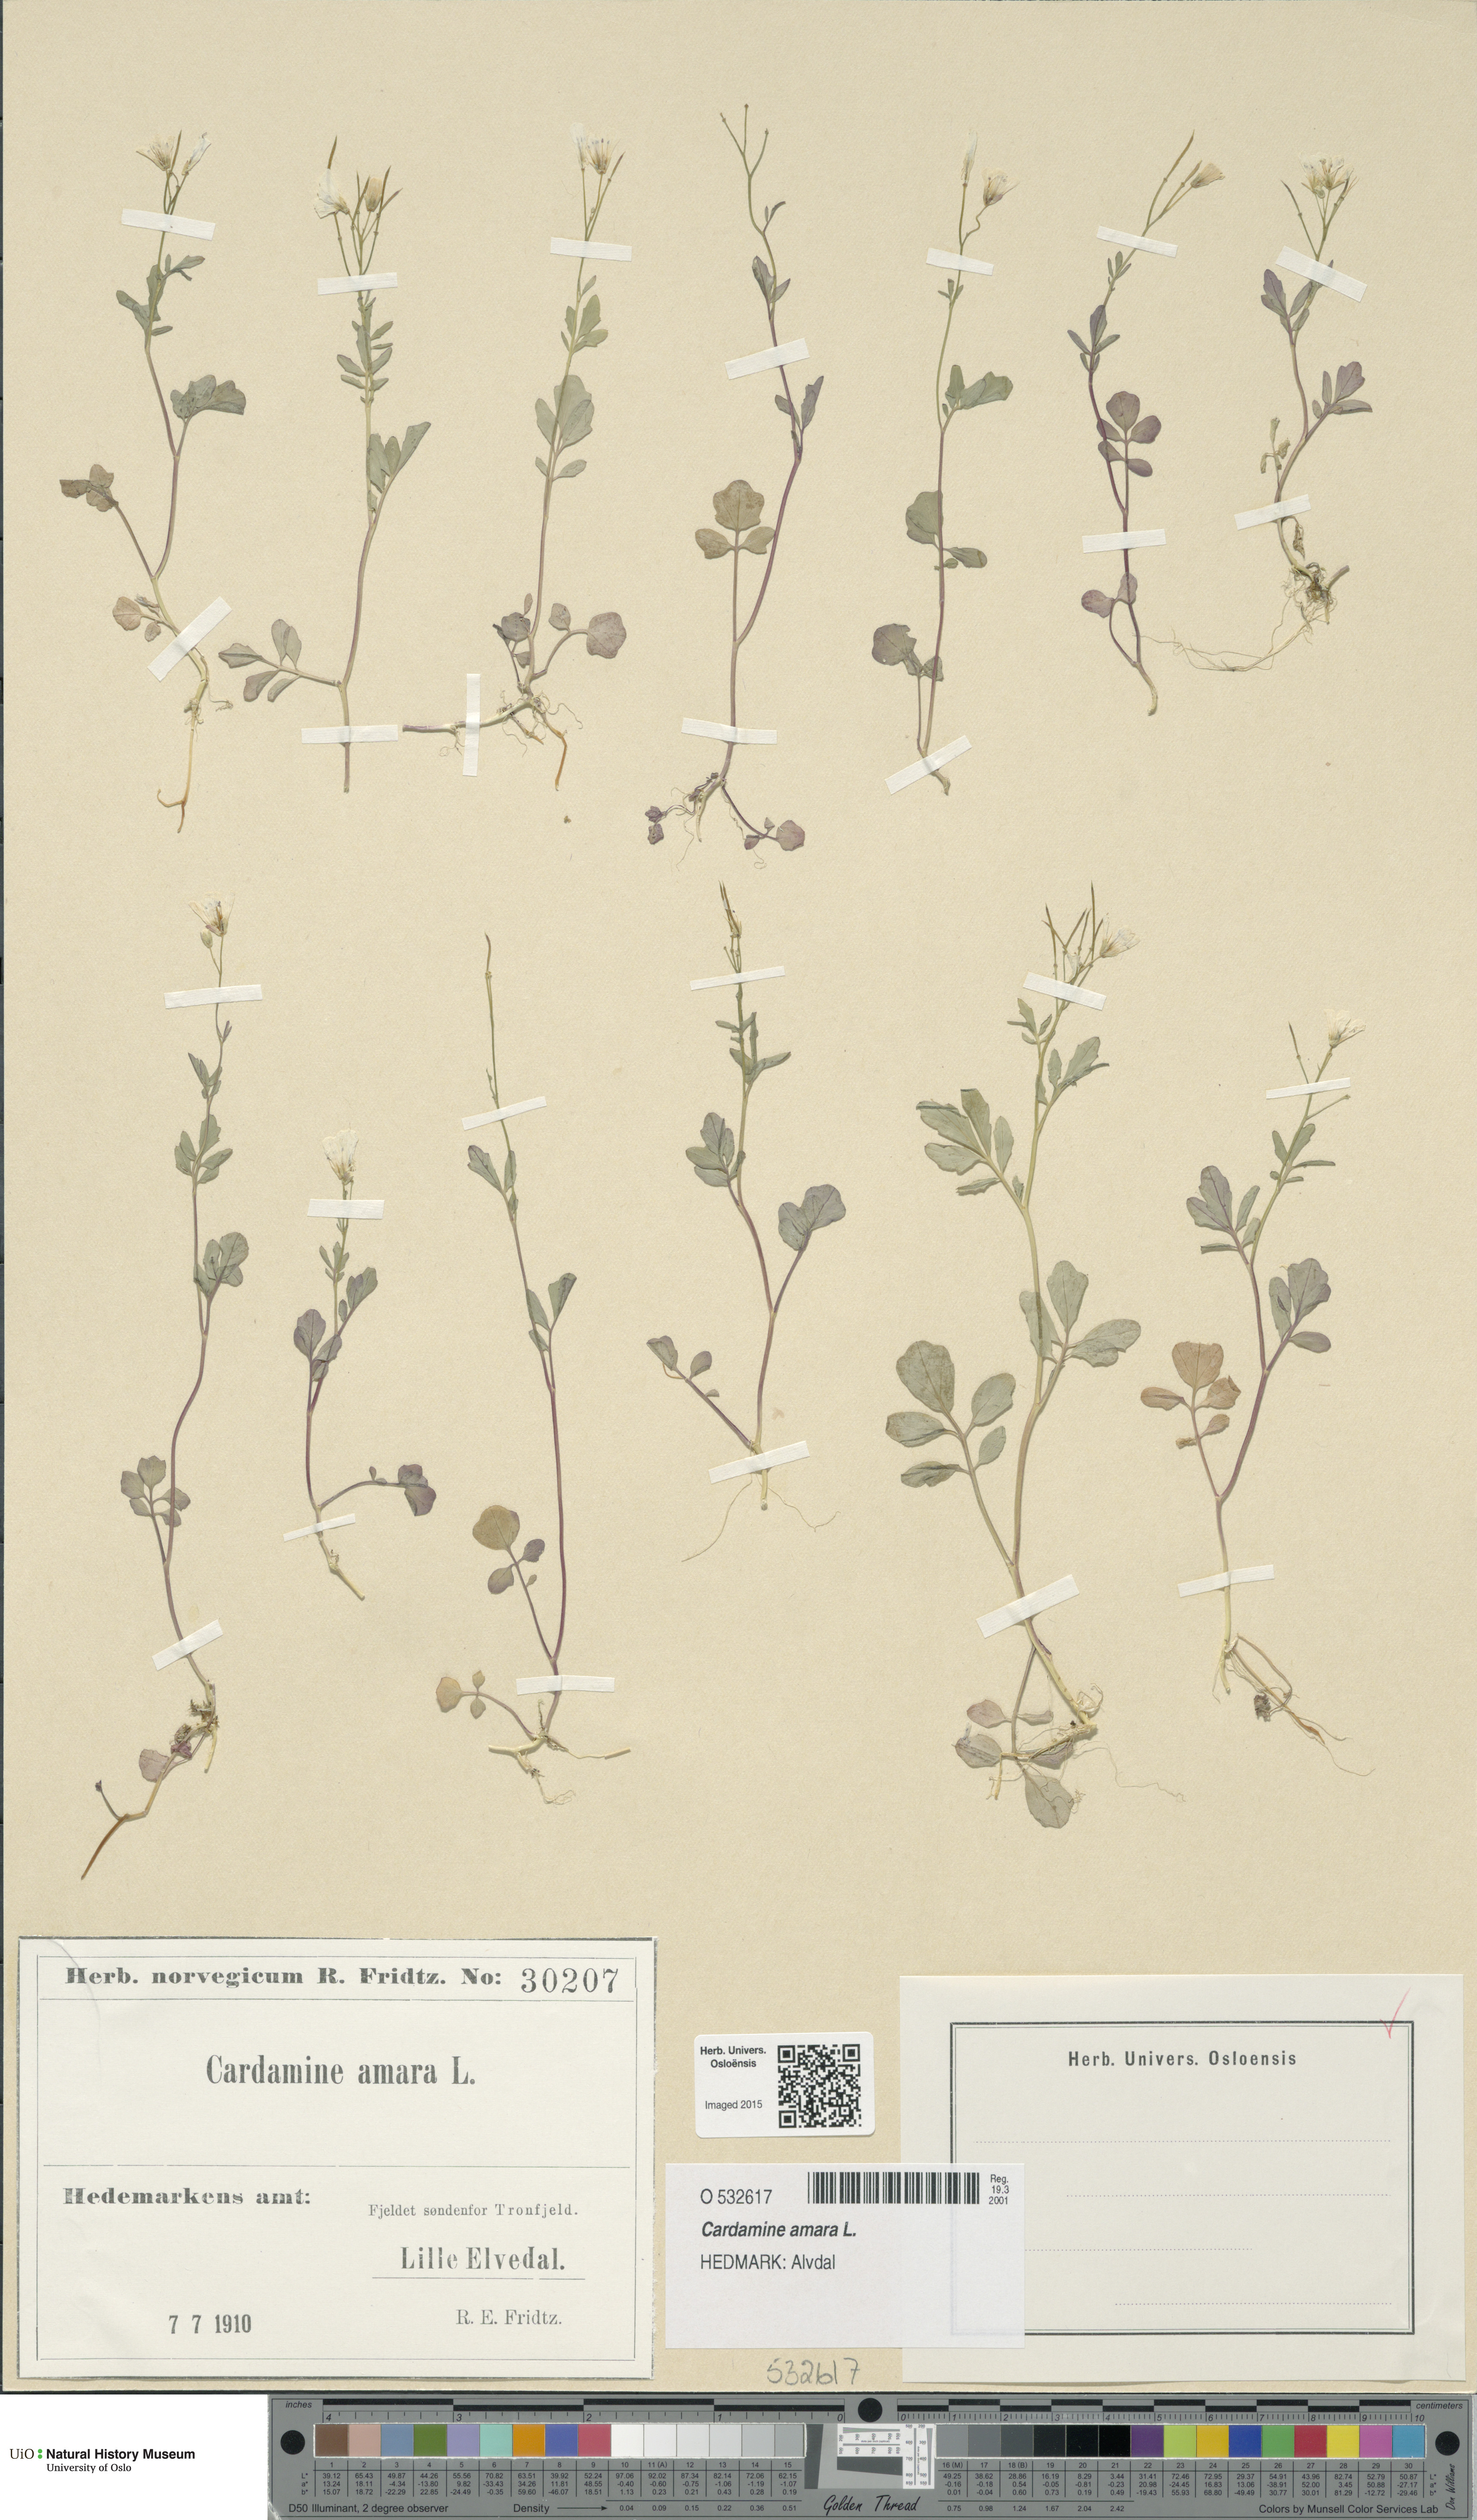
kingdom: Plantae
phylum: Tracheophyta
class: Magnoliopsida
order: Brassicales
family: Brassicaceae
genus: Cardamine
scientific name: Cardamine amara
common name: Large bitter-cress
